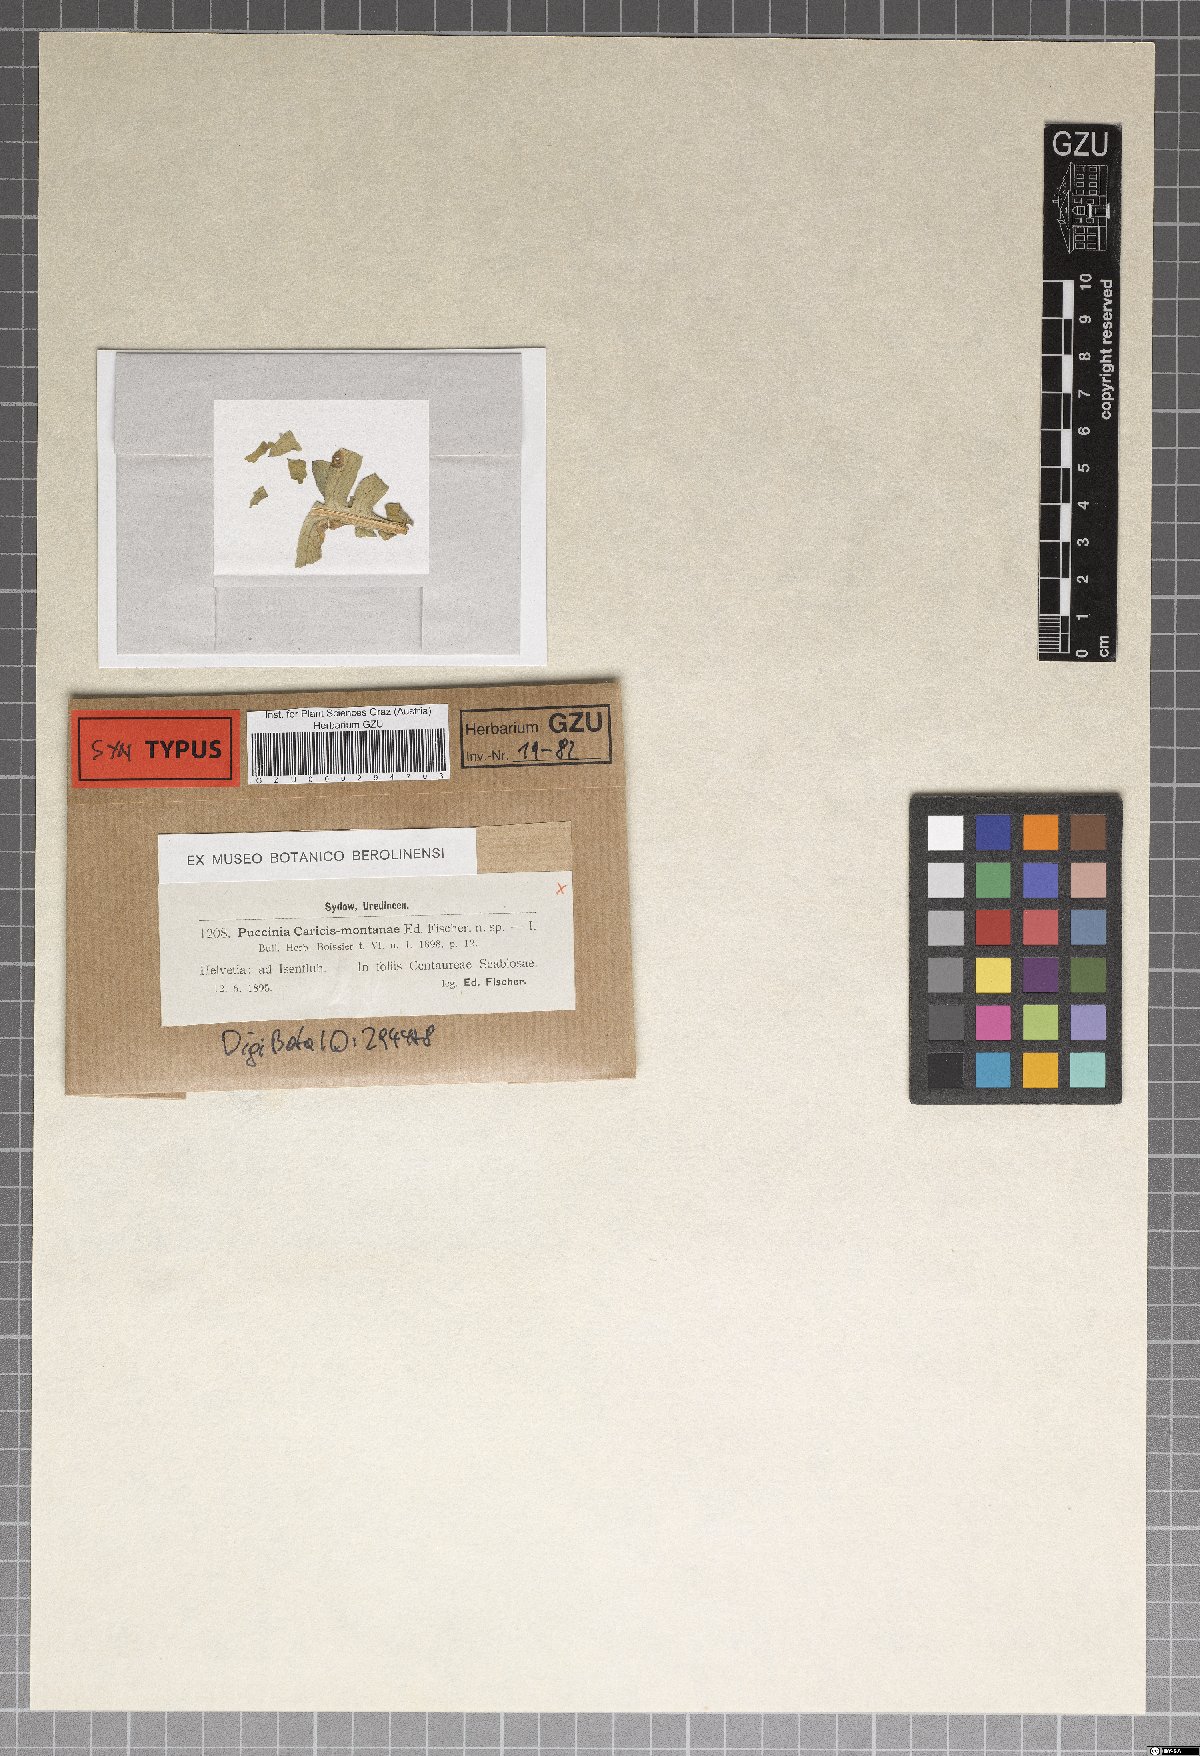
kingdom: Fungi
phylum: Basidiomycota
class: Pucciniomycetes
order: Pucciniales
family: Pucciniaceae
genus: Puccinia
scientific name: Puccinia caricis-montanae
